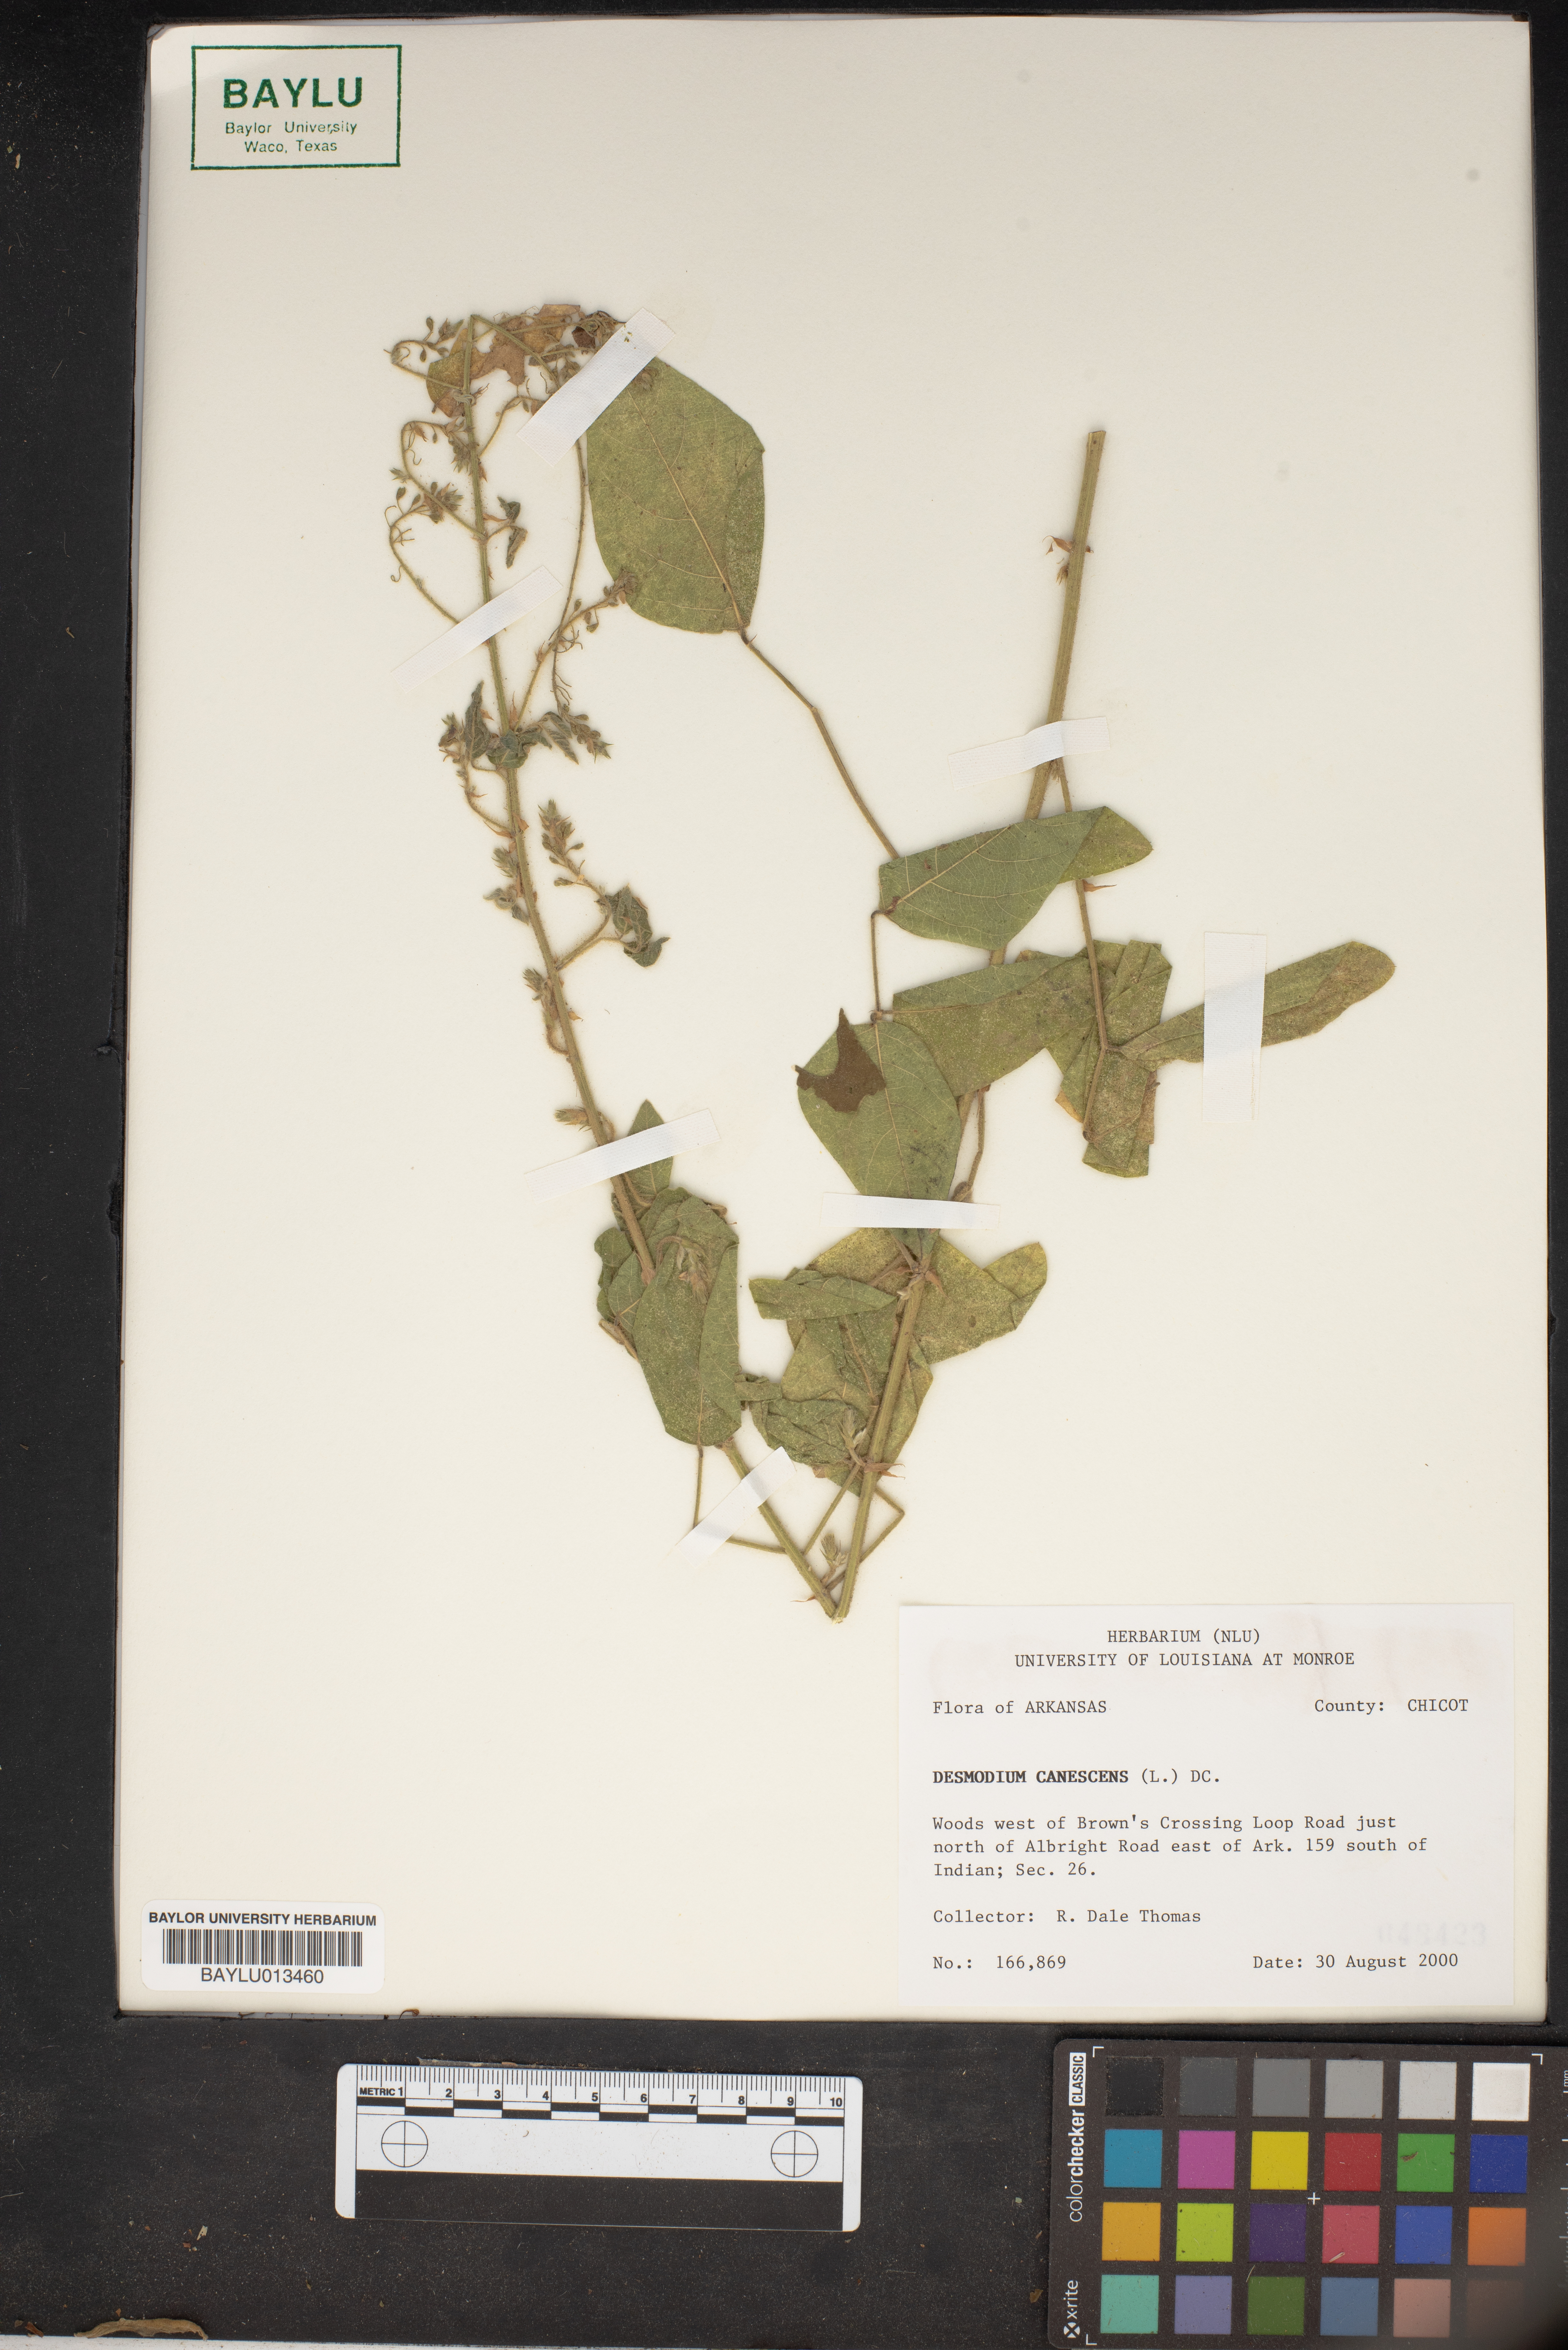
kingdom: Plantae
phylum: Tracheophyta
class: Magnoliopsida
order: Fabales
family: Fabaceae
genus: Desmodium
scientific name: Desmodium canescens
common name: Hoary tick-clover
